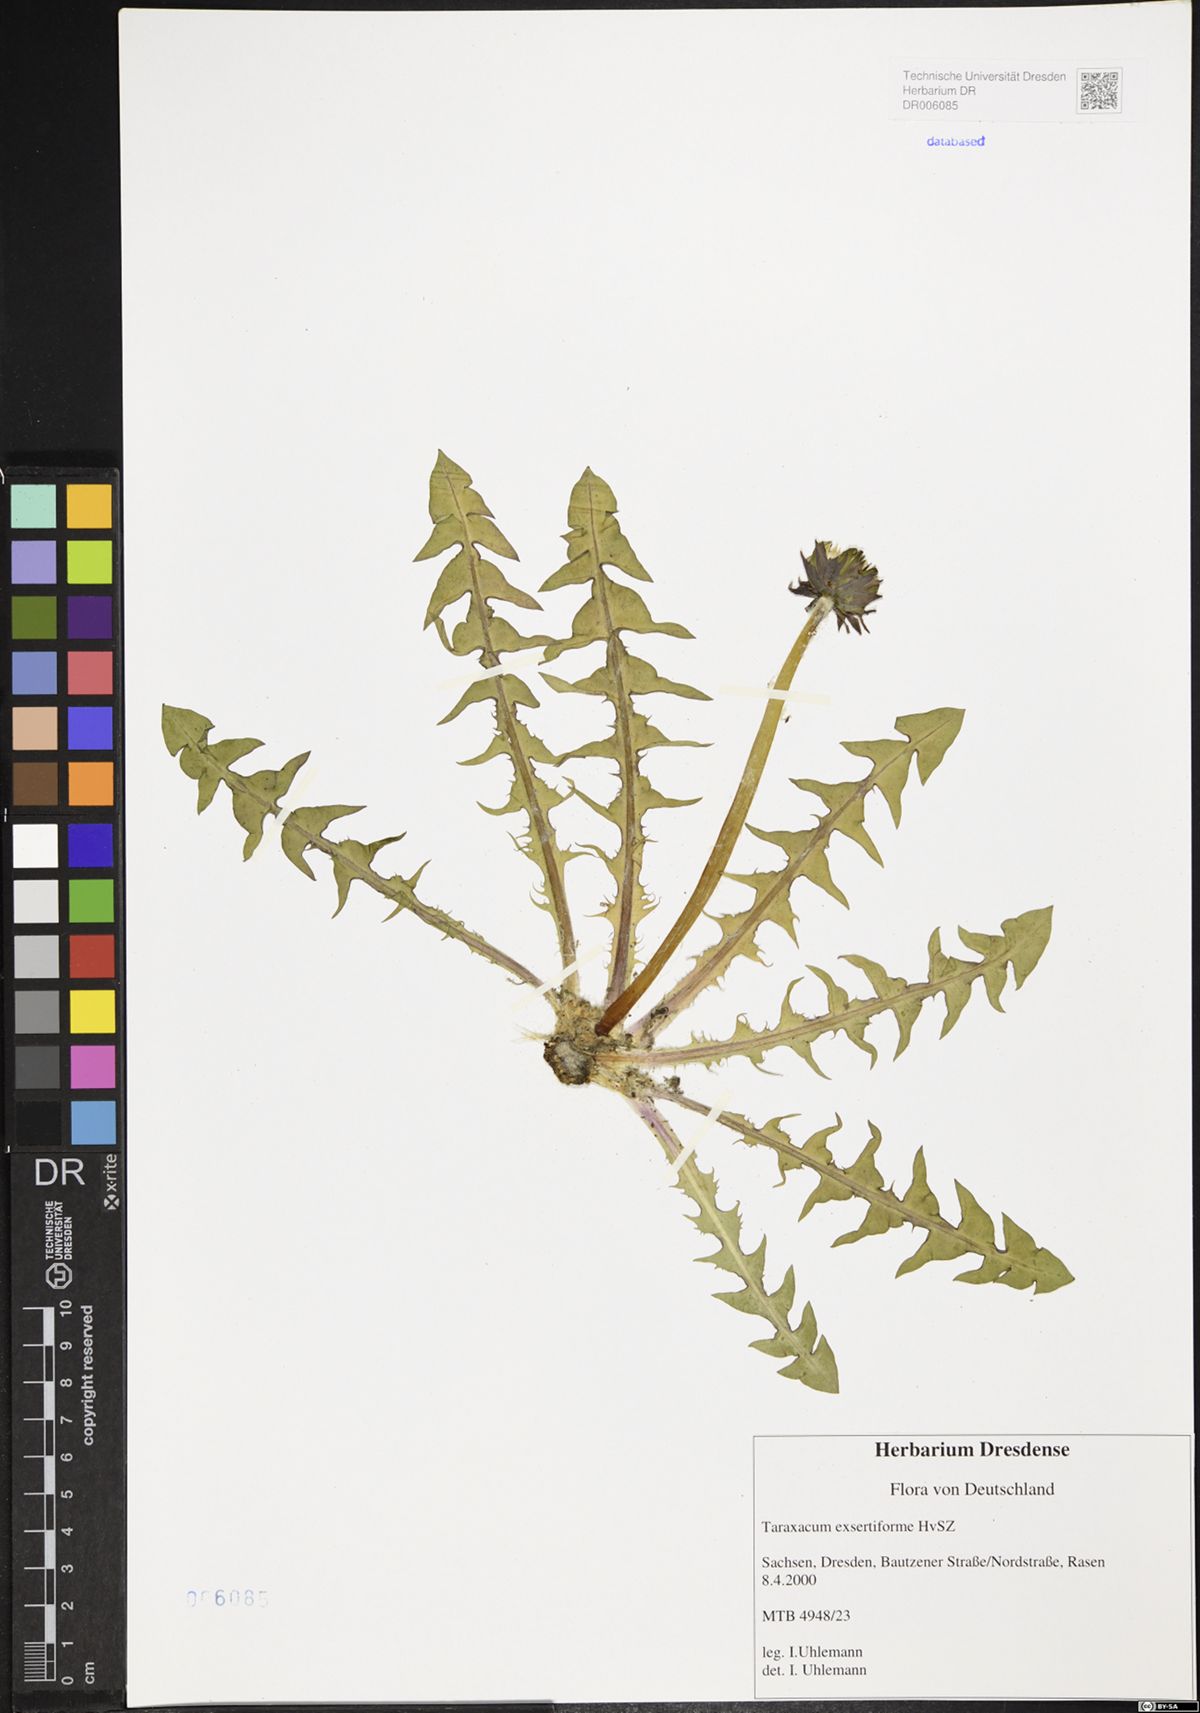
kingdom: Plantae
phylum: Tracheophyta
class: Magnoliopsida
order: Asterales
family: Asteraceae
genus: Taraxacum
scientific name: Taraxacum exsertiforme
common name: Erect-bracted dandelion
